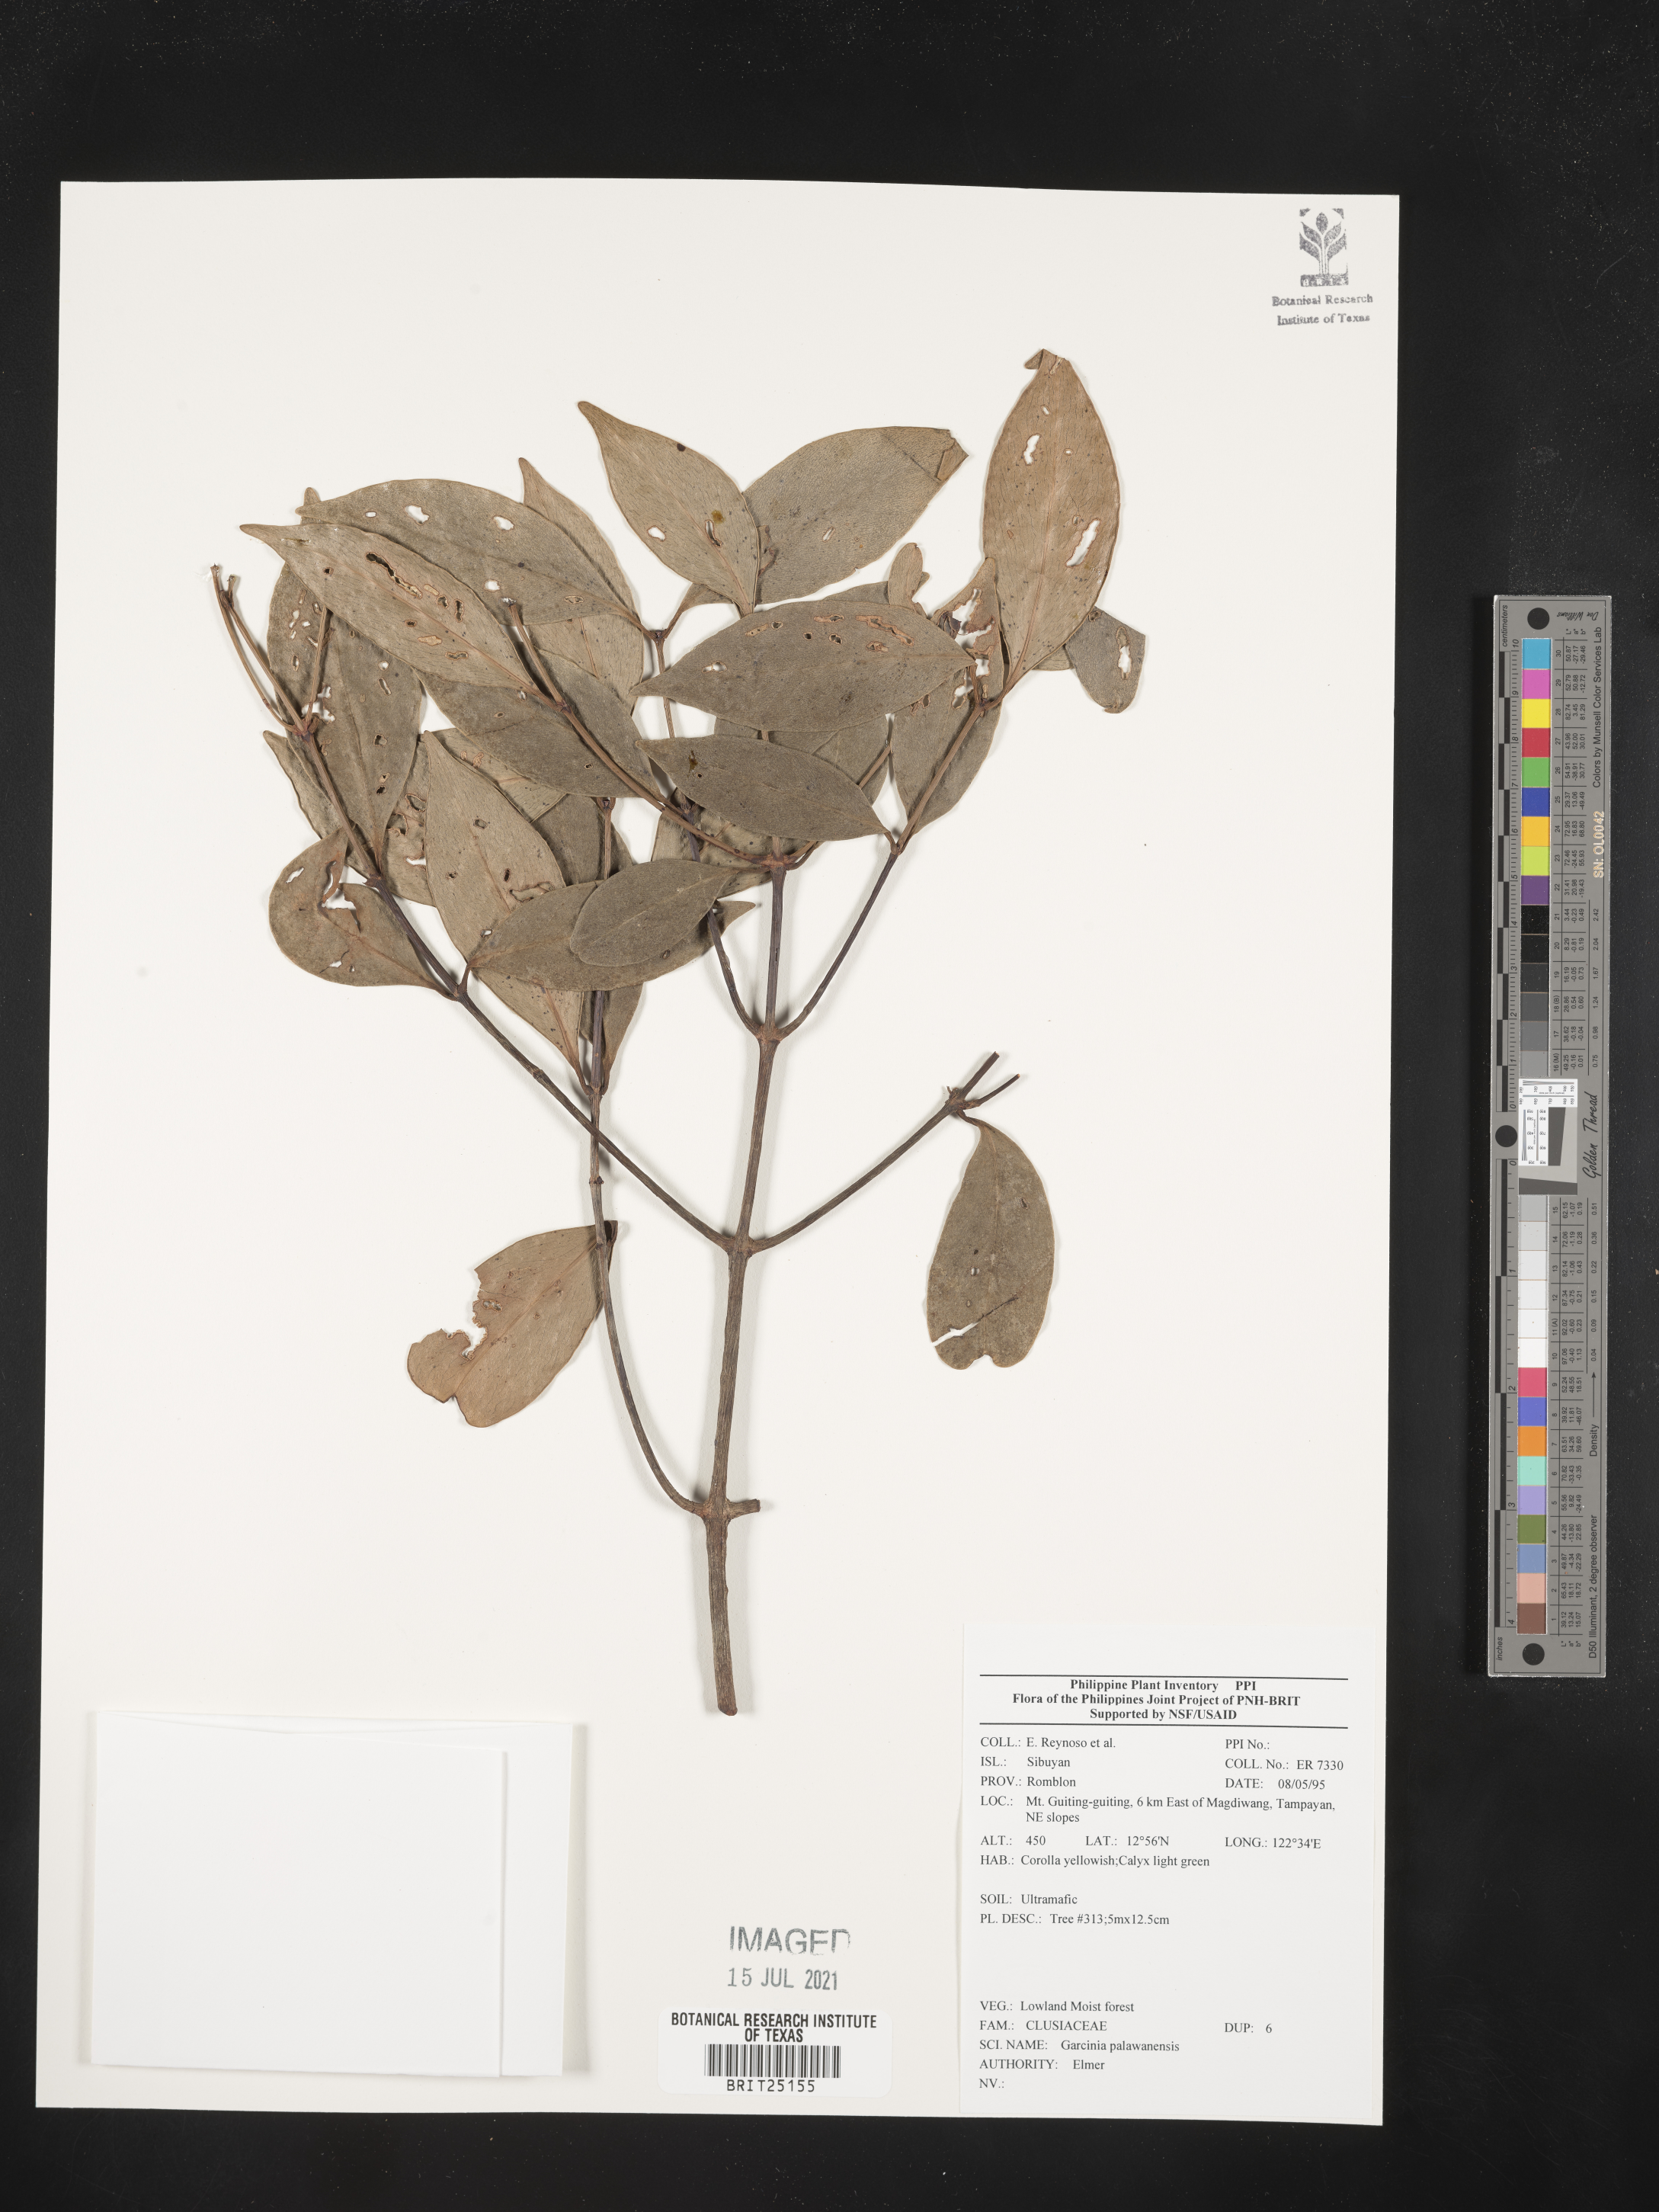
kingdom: Plantae
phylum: Tracheophyta
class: Magnoliopsida
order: Malpighiales
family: Clusiaceae
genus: Garcinia
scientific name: Garcinia dives
